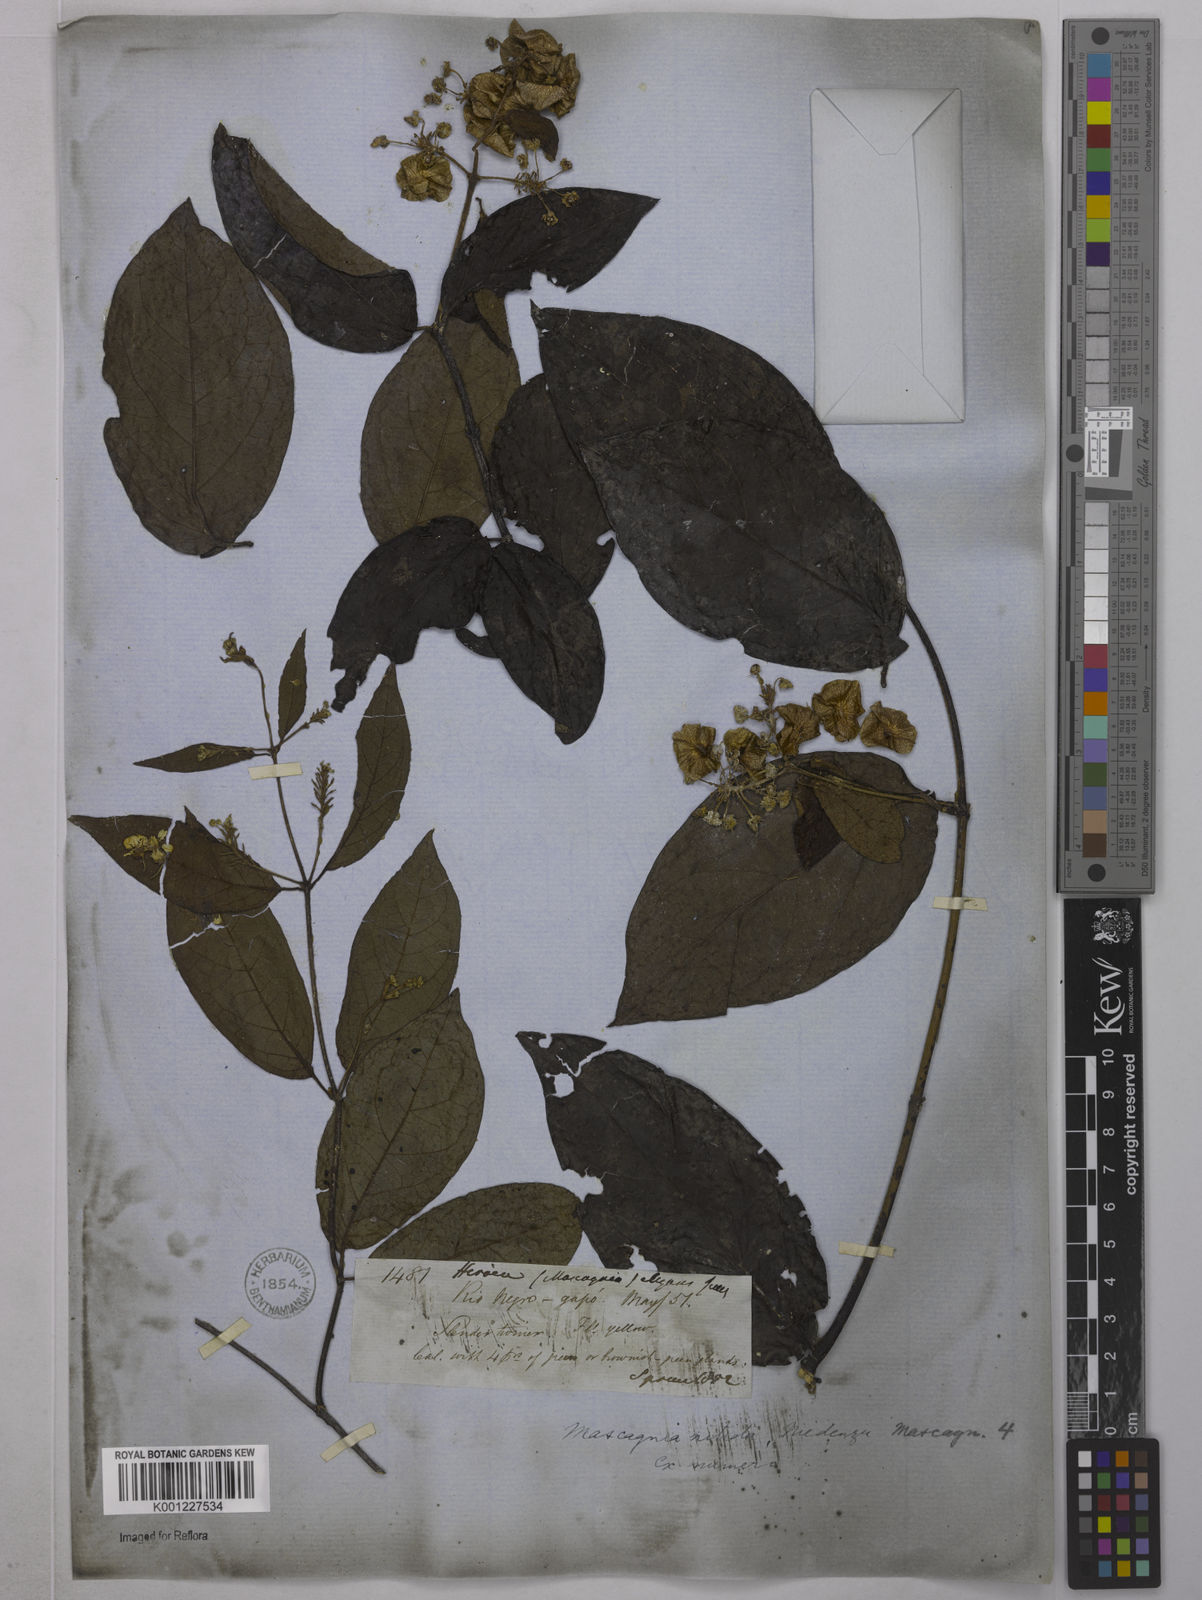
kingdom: Plantae
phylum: Tracheophyta
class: Magnoliopsida
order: Malpighiales
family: Malpighiaceae
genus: Heteropterys
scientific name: Heteropterys complicata
